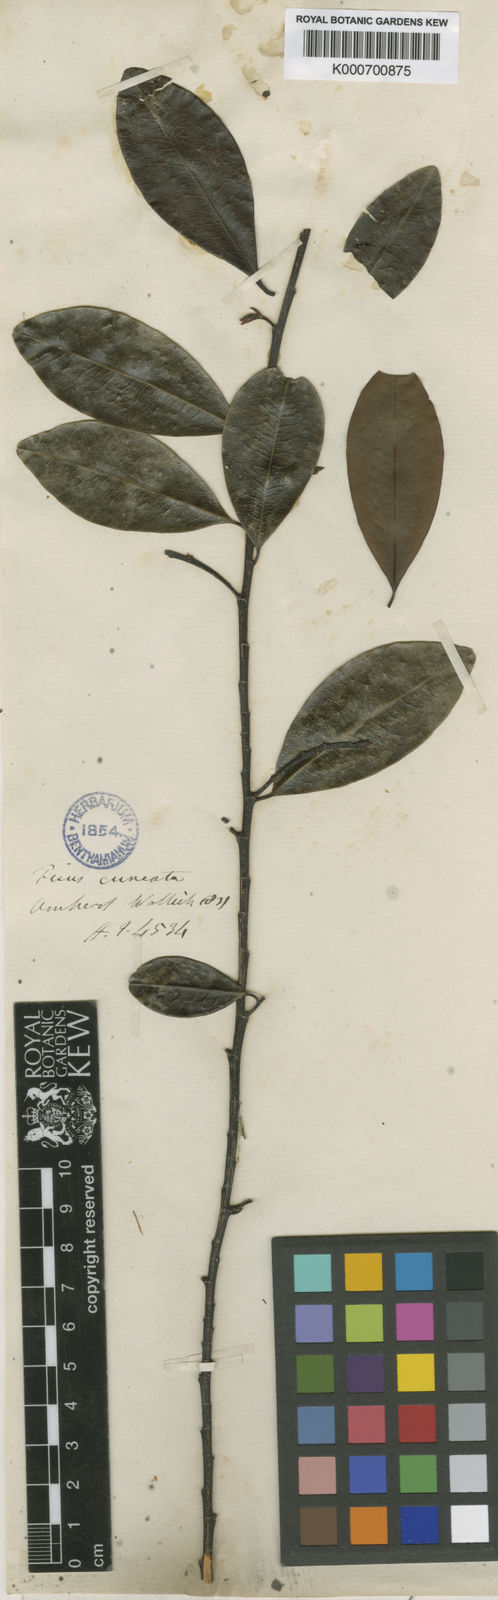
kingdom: Plantae
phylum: Tracheophyta
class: Magnoliopsida
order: Malpighiales
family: Erythroxylaceae
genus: Erythroxylum
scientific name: Erythroxylum cuneatum
